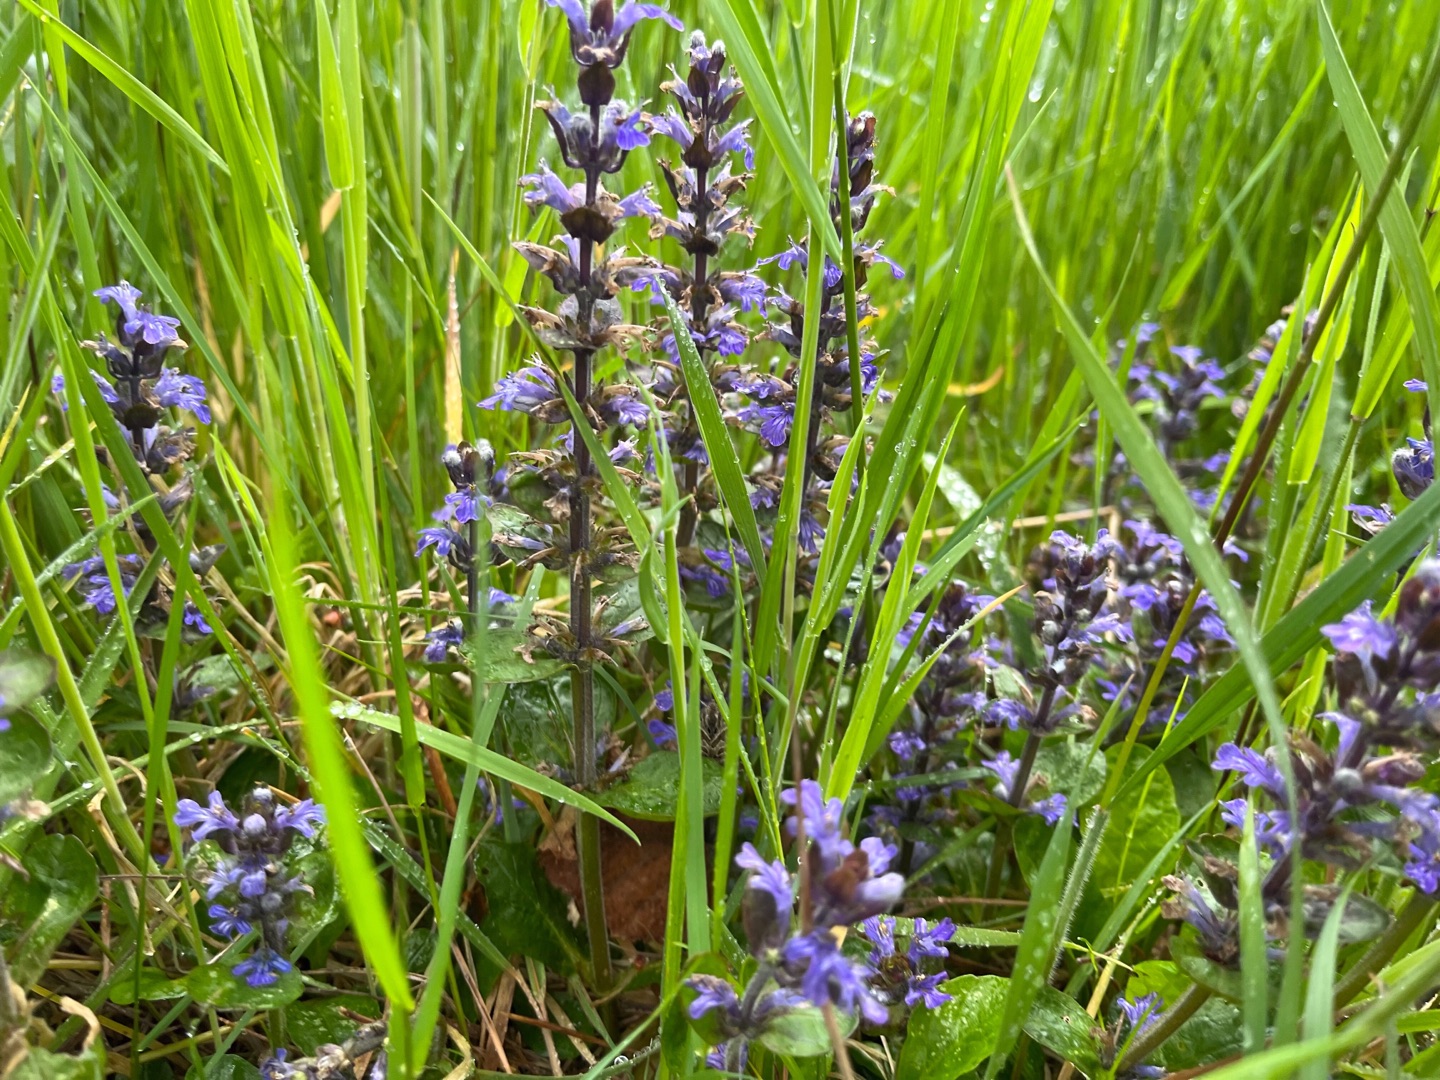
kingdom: Plantae
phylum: Tracheophyta
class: Magnoliopsida
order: Lamiales
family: Lamiaceae
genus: Ajuga
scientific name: Ajuga reptans
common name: Krybende læbeløs
